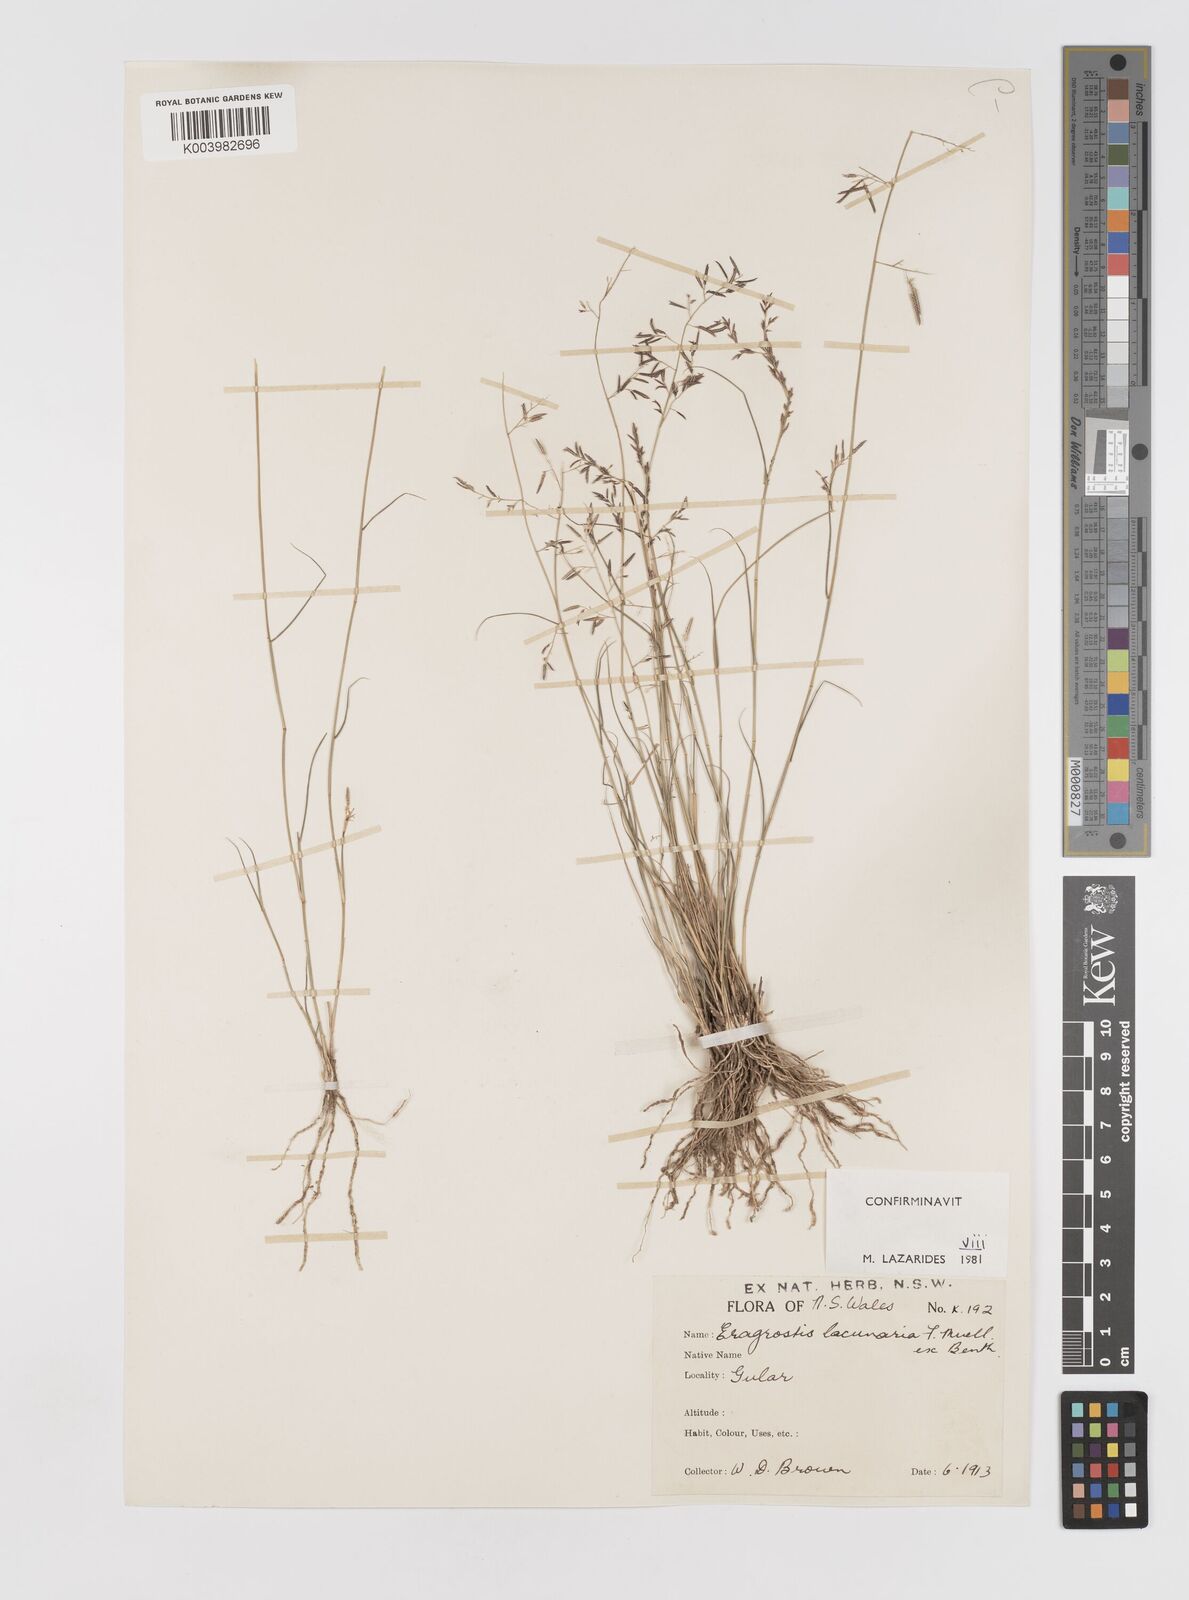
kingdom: Plantae
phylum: Tracheophyta
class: Liliopsida
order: Poales
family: Poaceae
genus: Eragrostis
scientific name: Eragrostis lacunaria
